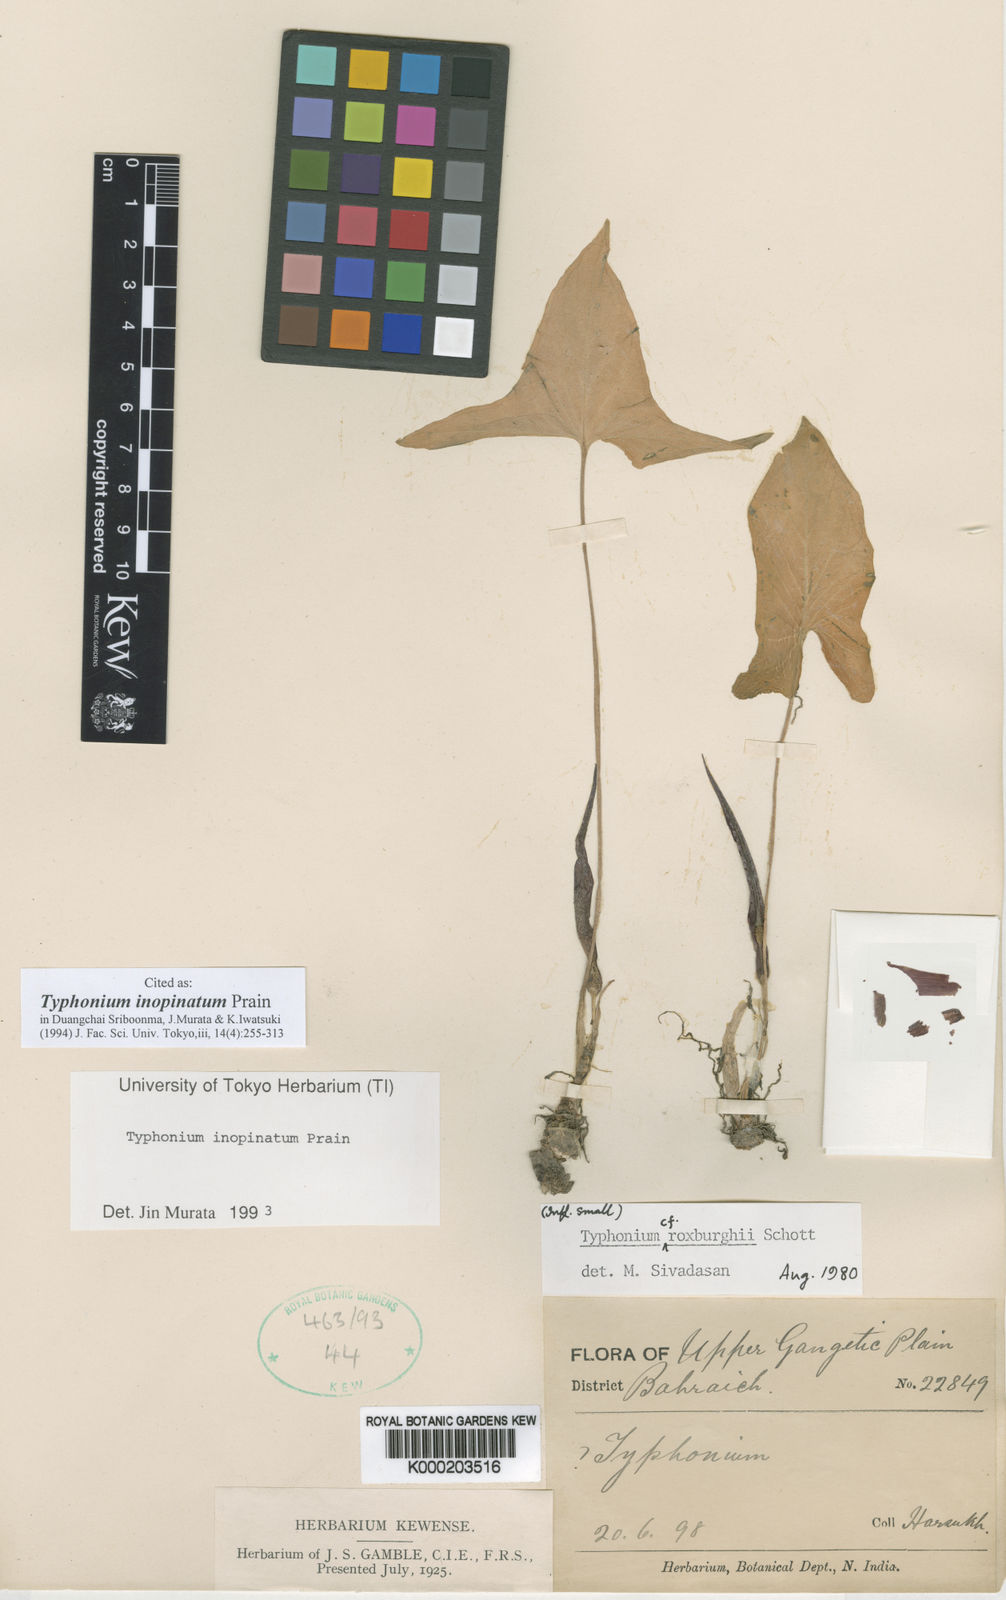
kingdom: Plantae
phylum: Tracheophyta
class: Liliopsida
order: Alismatales
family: Araceae
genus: Typhonium
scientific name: Typhonium inopinatum
